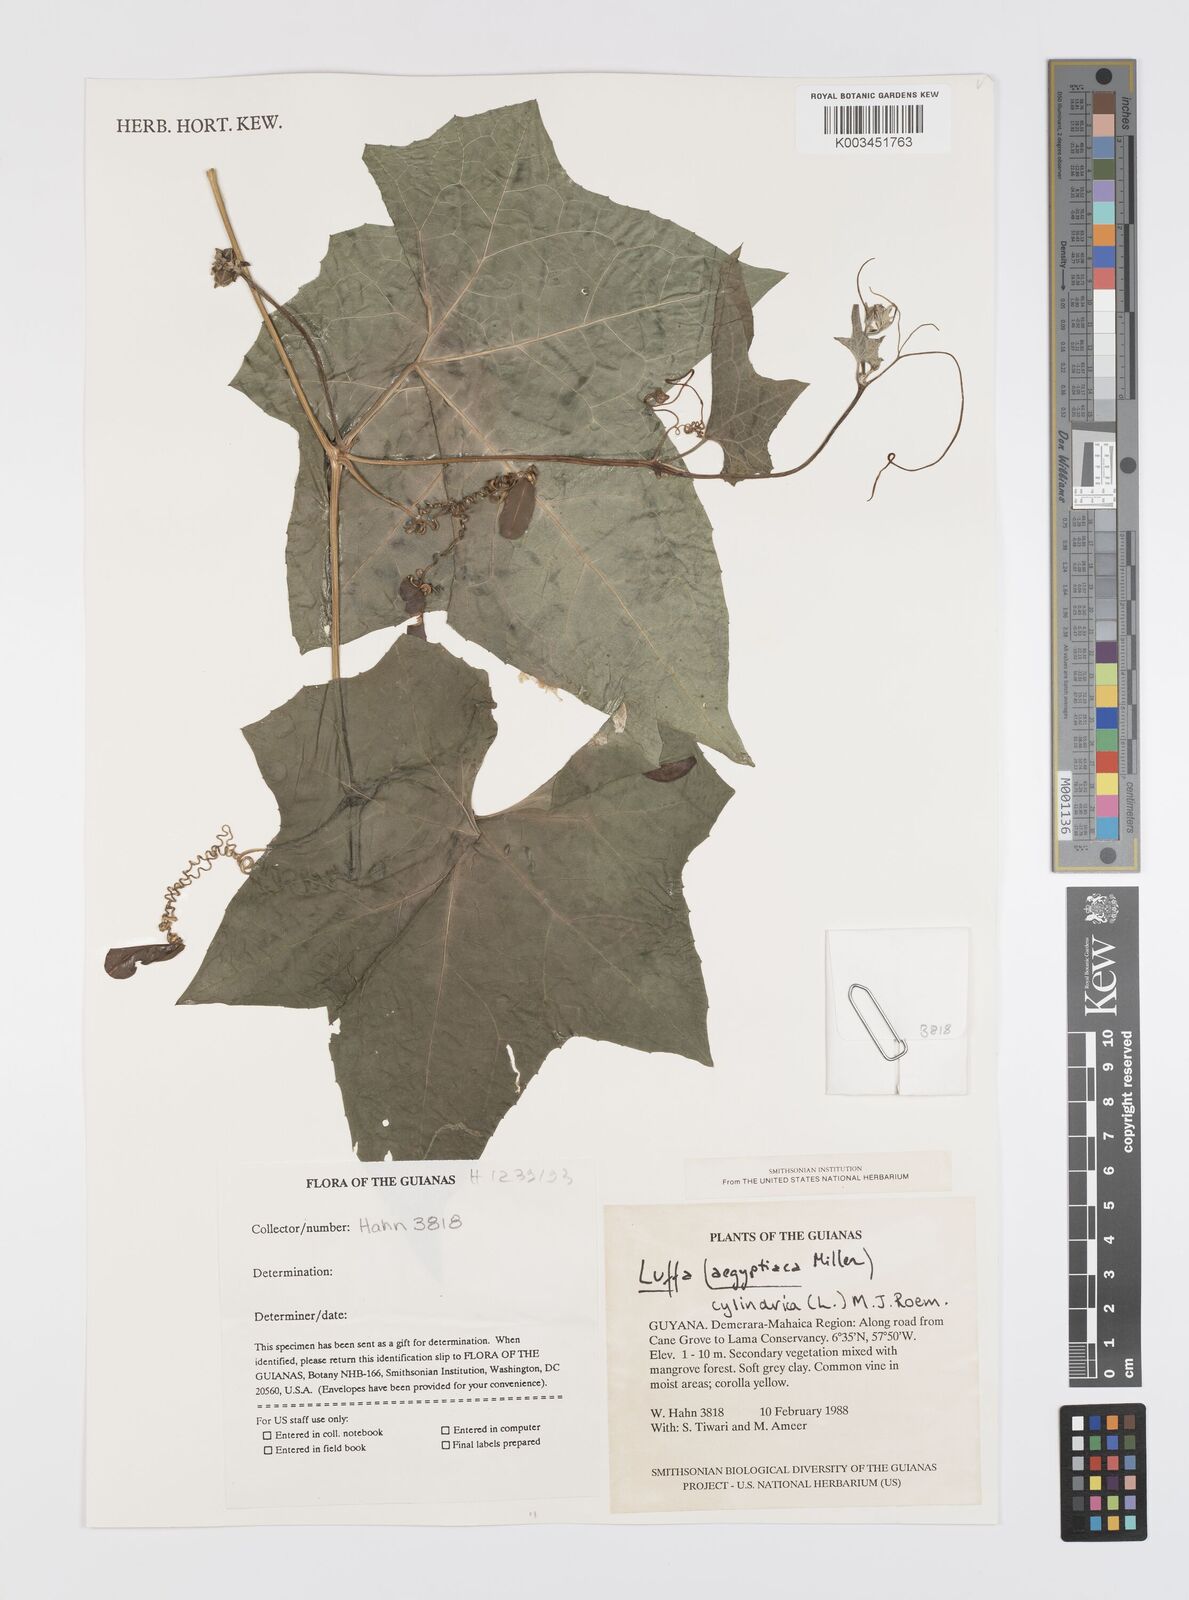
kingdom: Plantae
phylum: Tracheophyta
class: Magnoliopsida
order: Cucurbitales
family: Cucurbitaceae
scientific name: Cucurbitaceae
